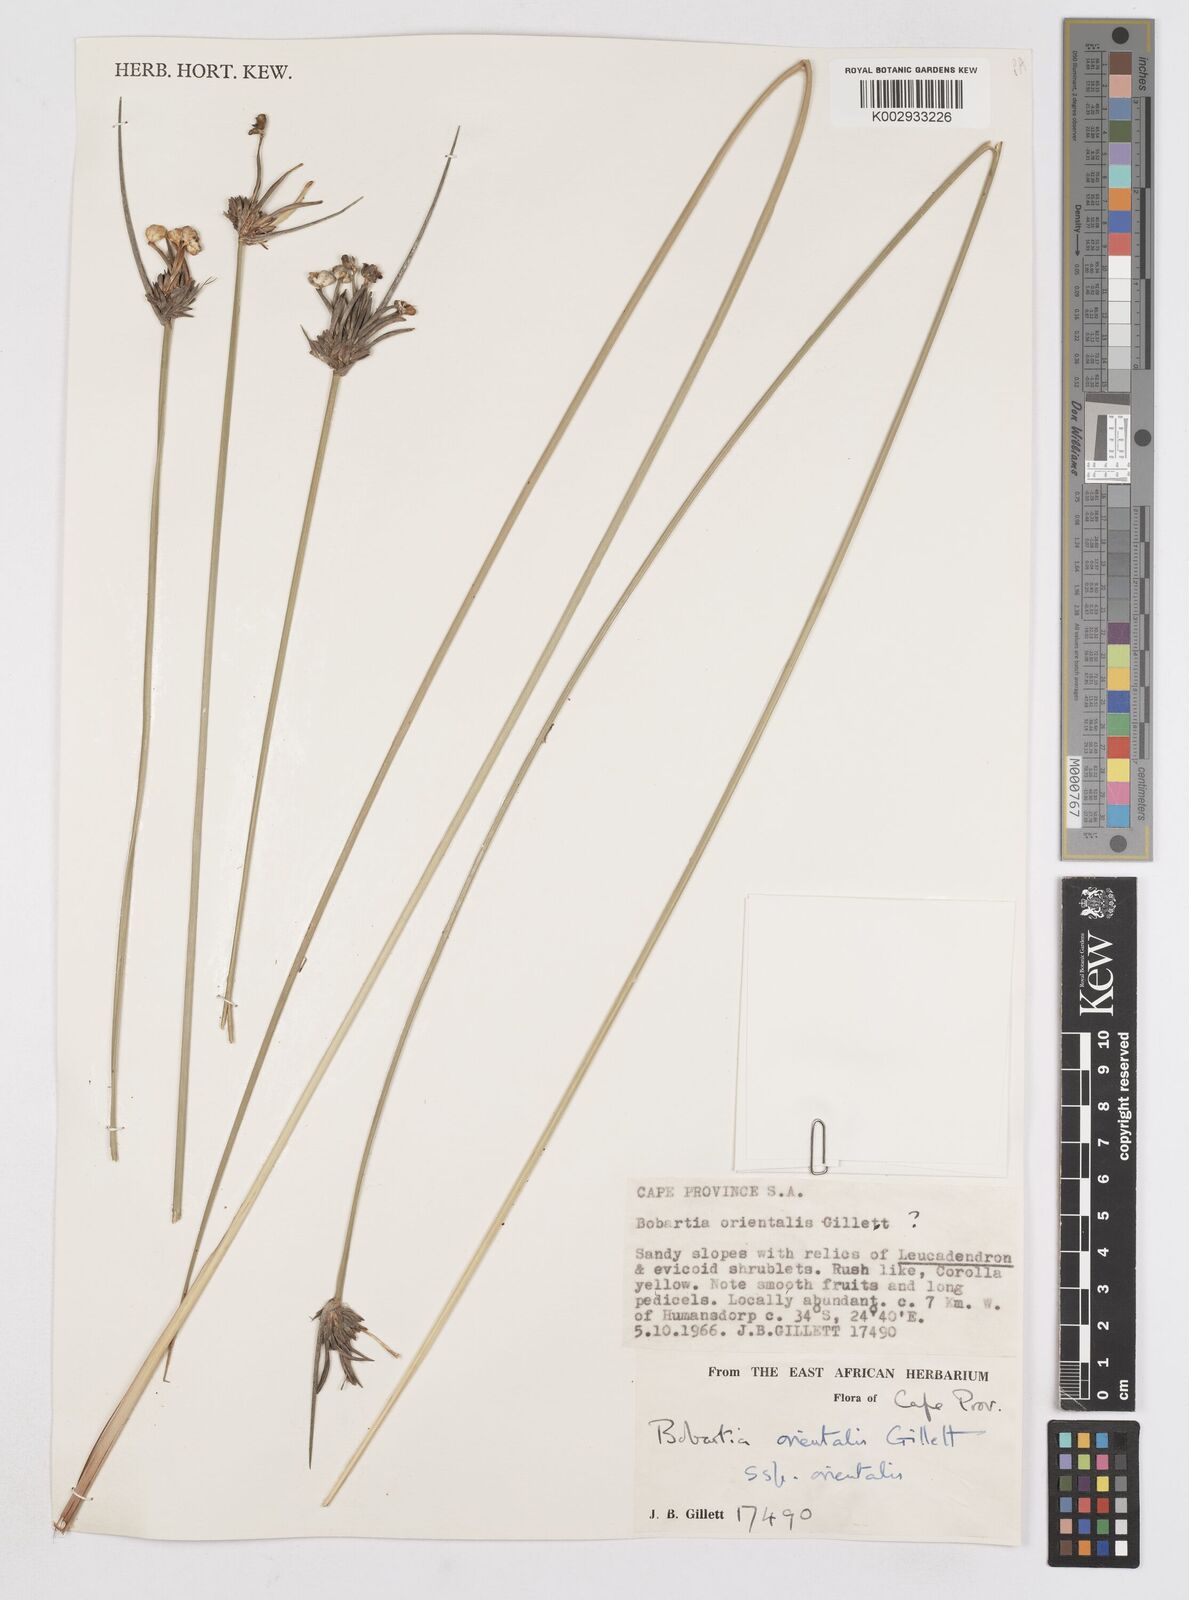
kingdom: Plantae
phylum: Tracheophyta
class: Liliopsida
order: Asparagales
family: Iridaceae
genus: Bobartia
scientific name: Bobartia orientalis
